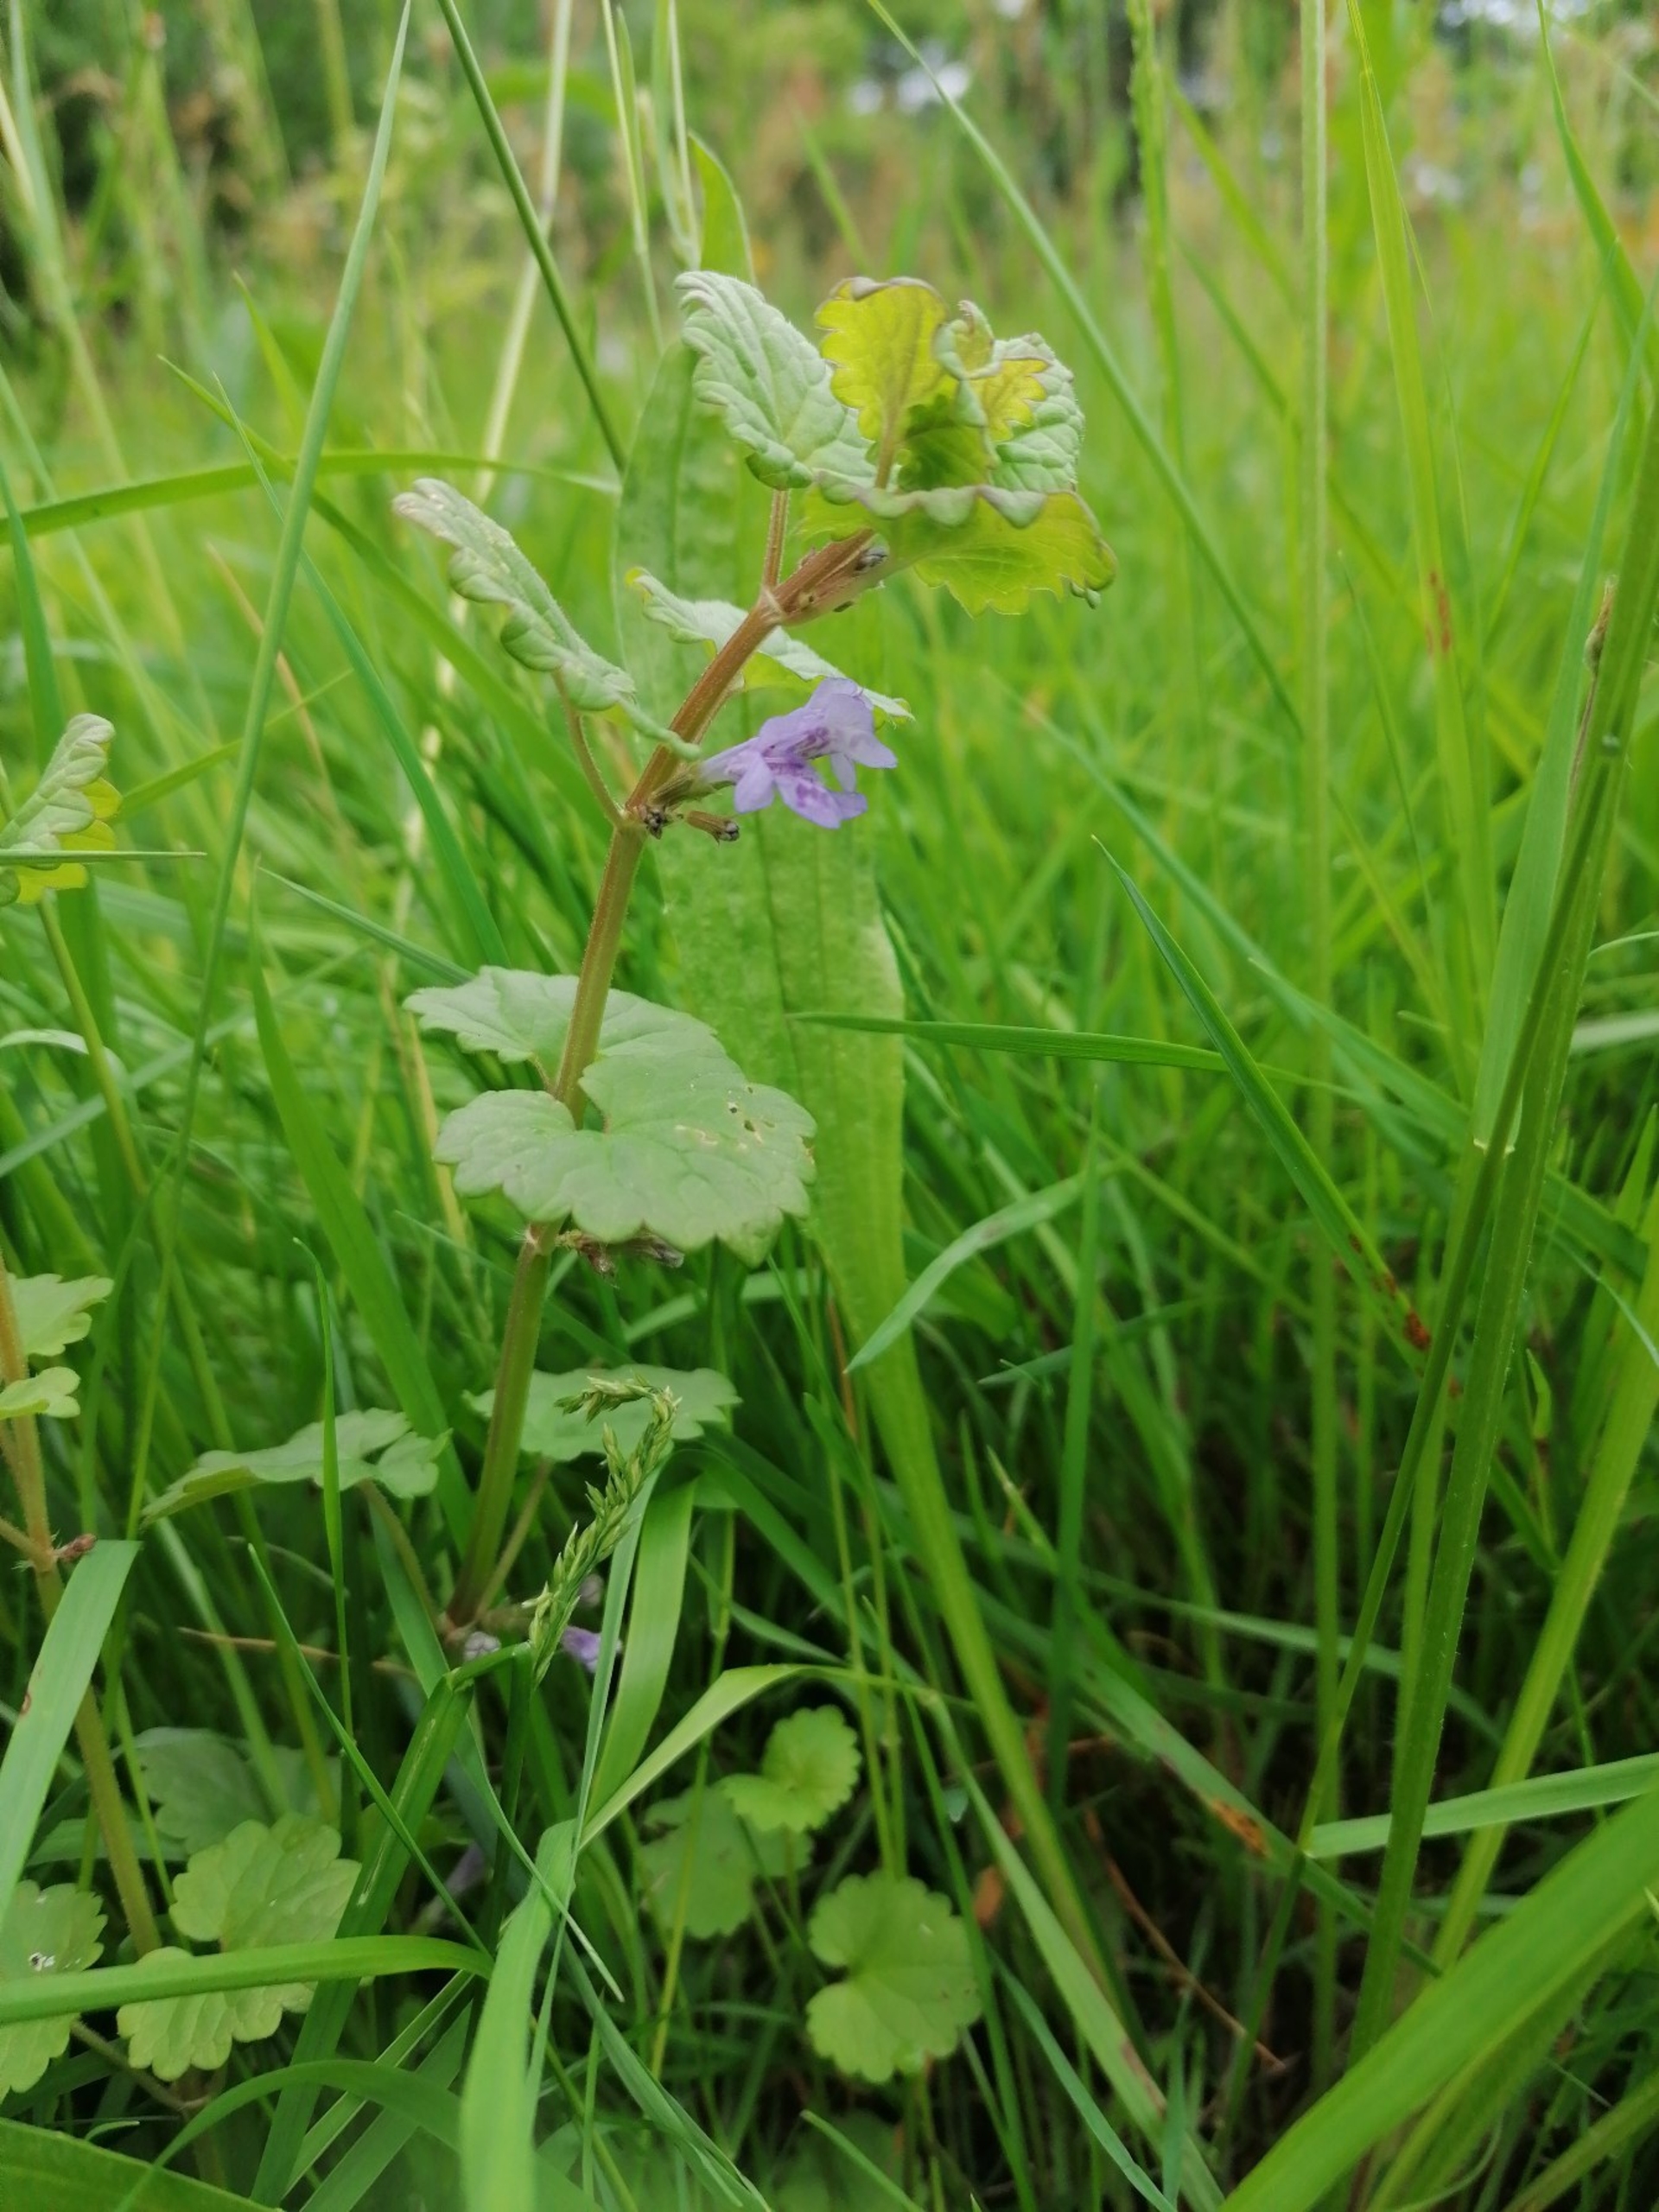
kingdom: Plantae
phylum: Tracheophyta
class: Magnoliopsida
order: Lamiales
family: Lamiaceae
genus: Glechoma
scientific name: Glechoma hederacea
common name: Korsknap
